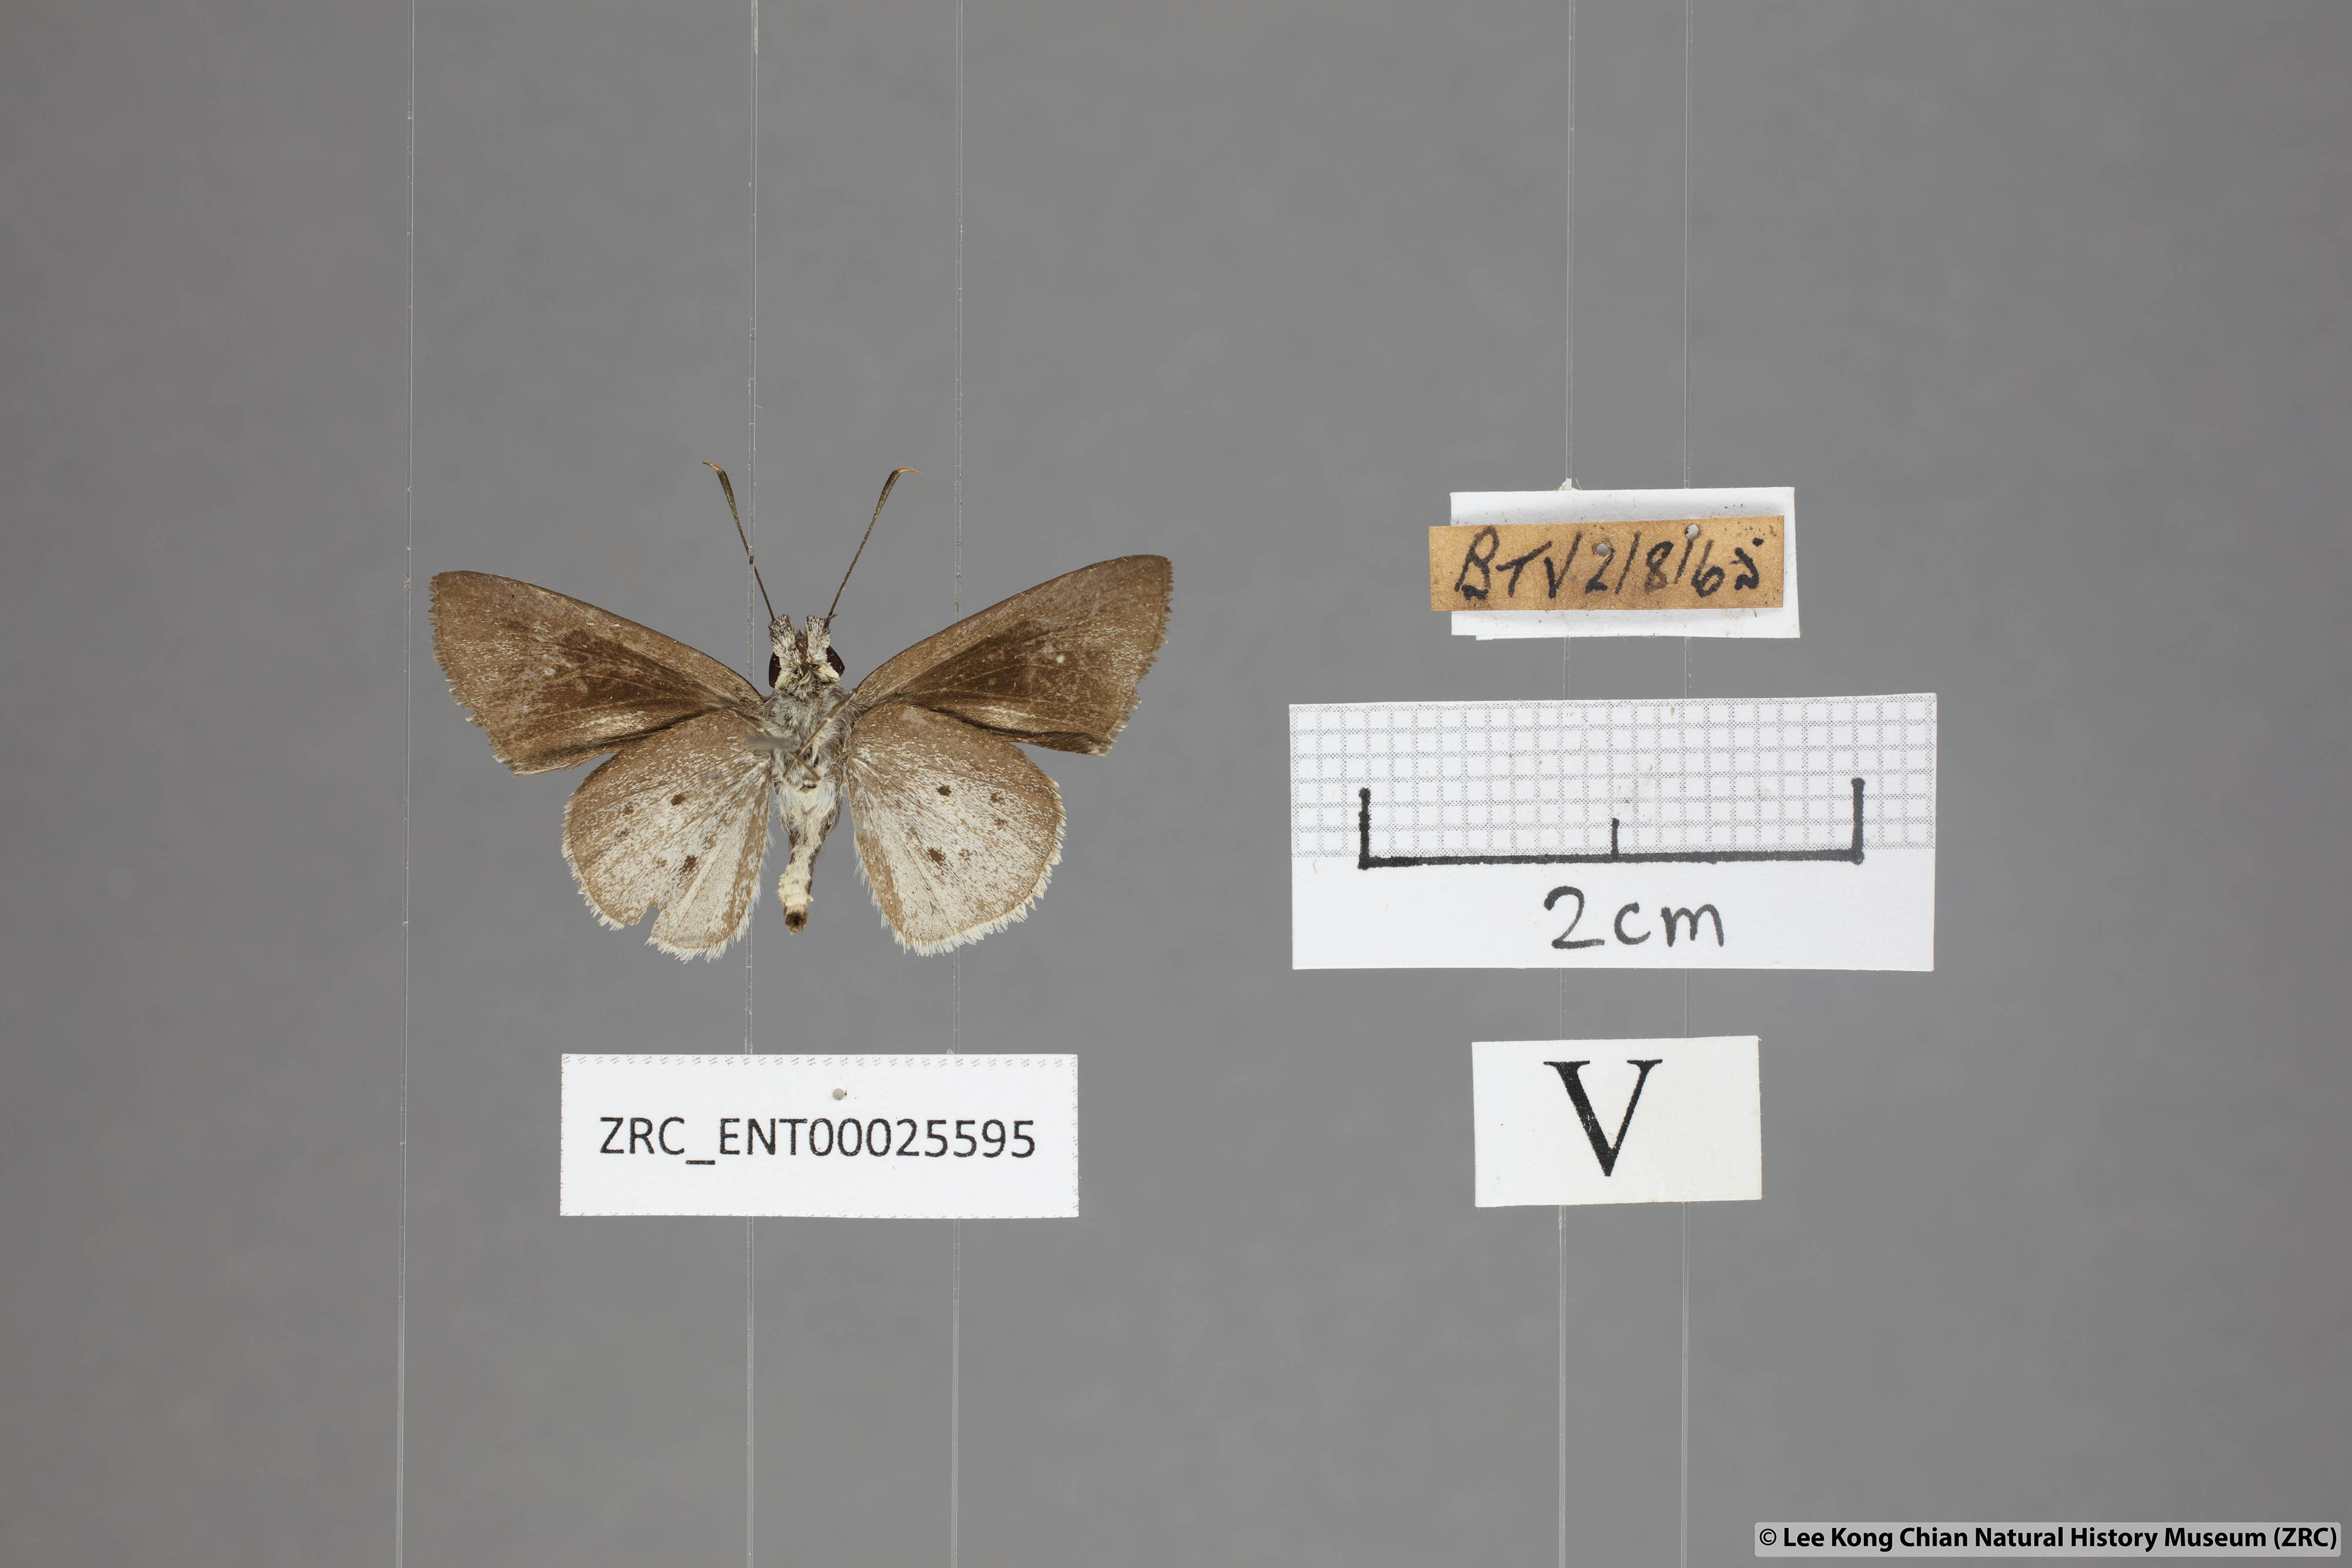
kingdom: Animalia
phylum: Arthropoda
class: Insecta
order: Lepidoptera
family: Hesperiidae
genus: Suastus
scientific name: Suastus minuta
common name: Small palm bob
